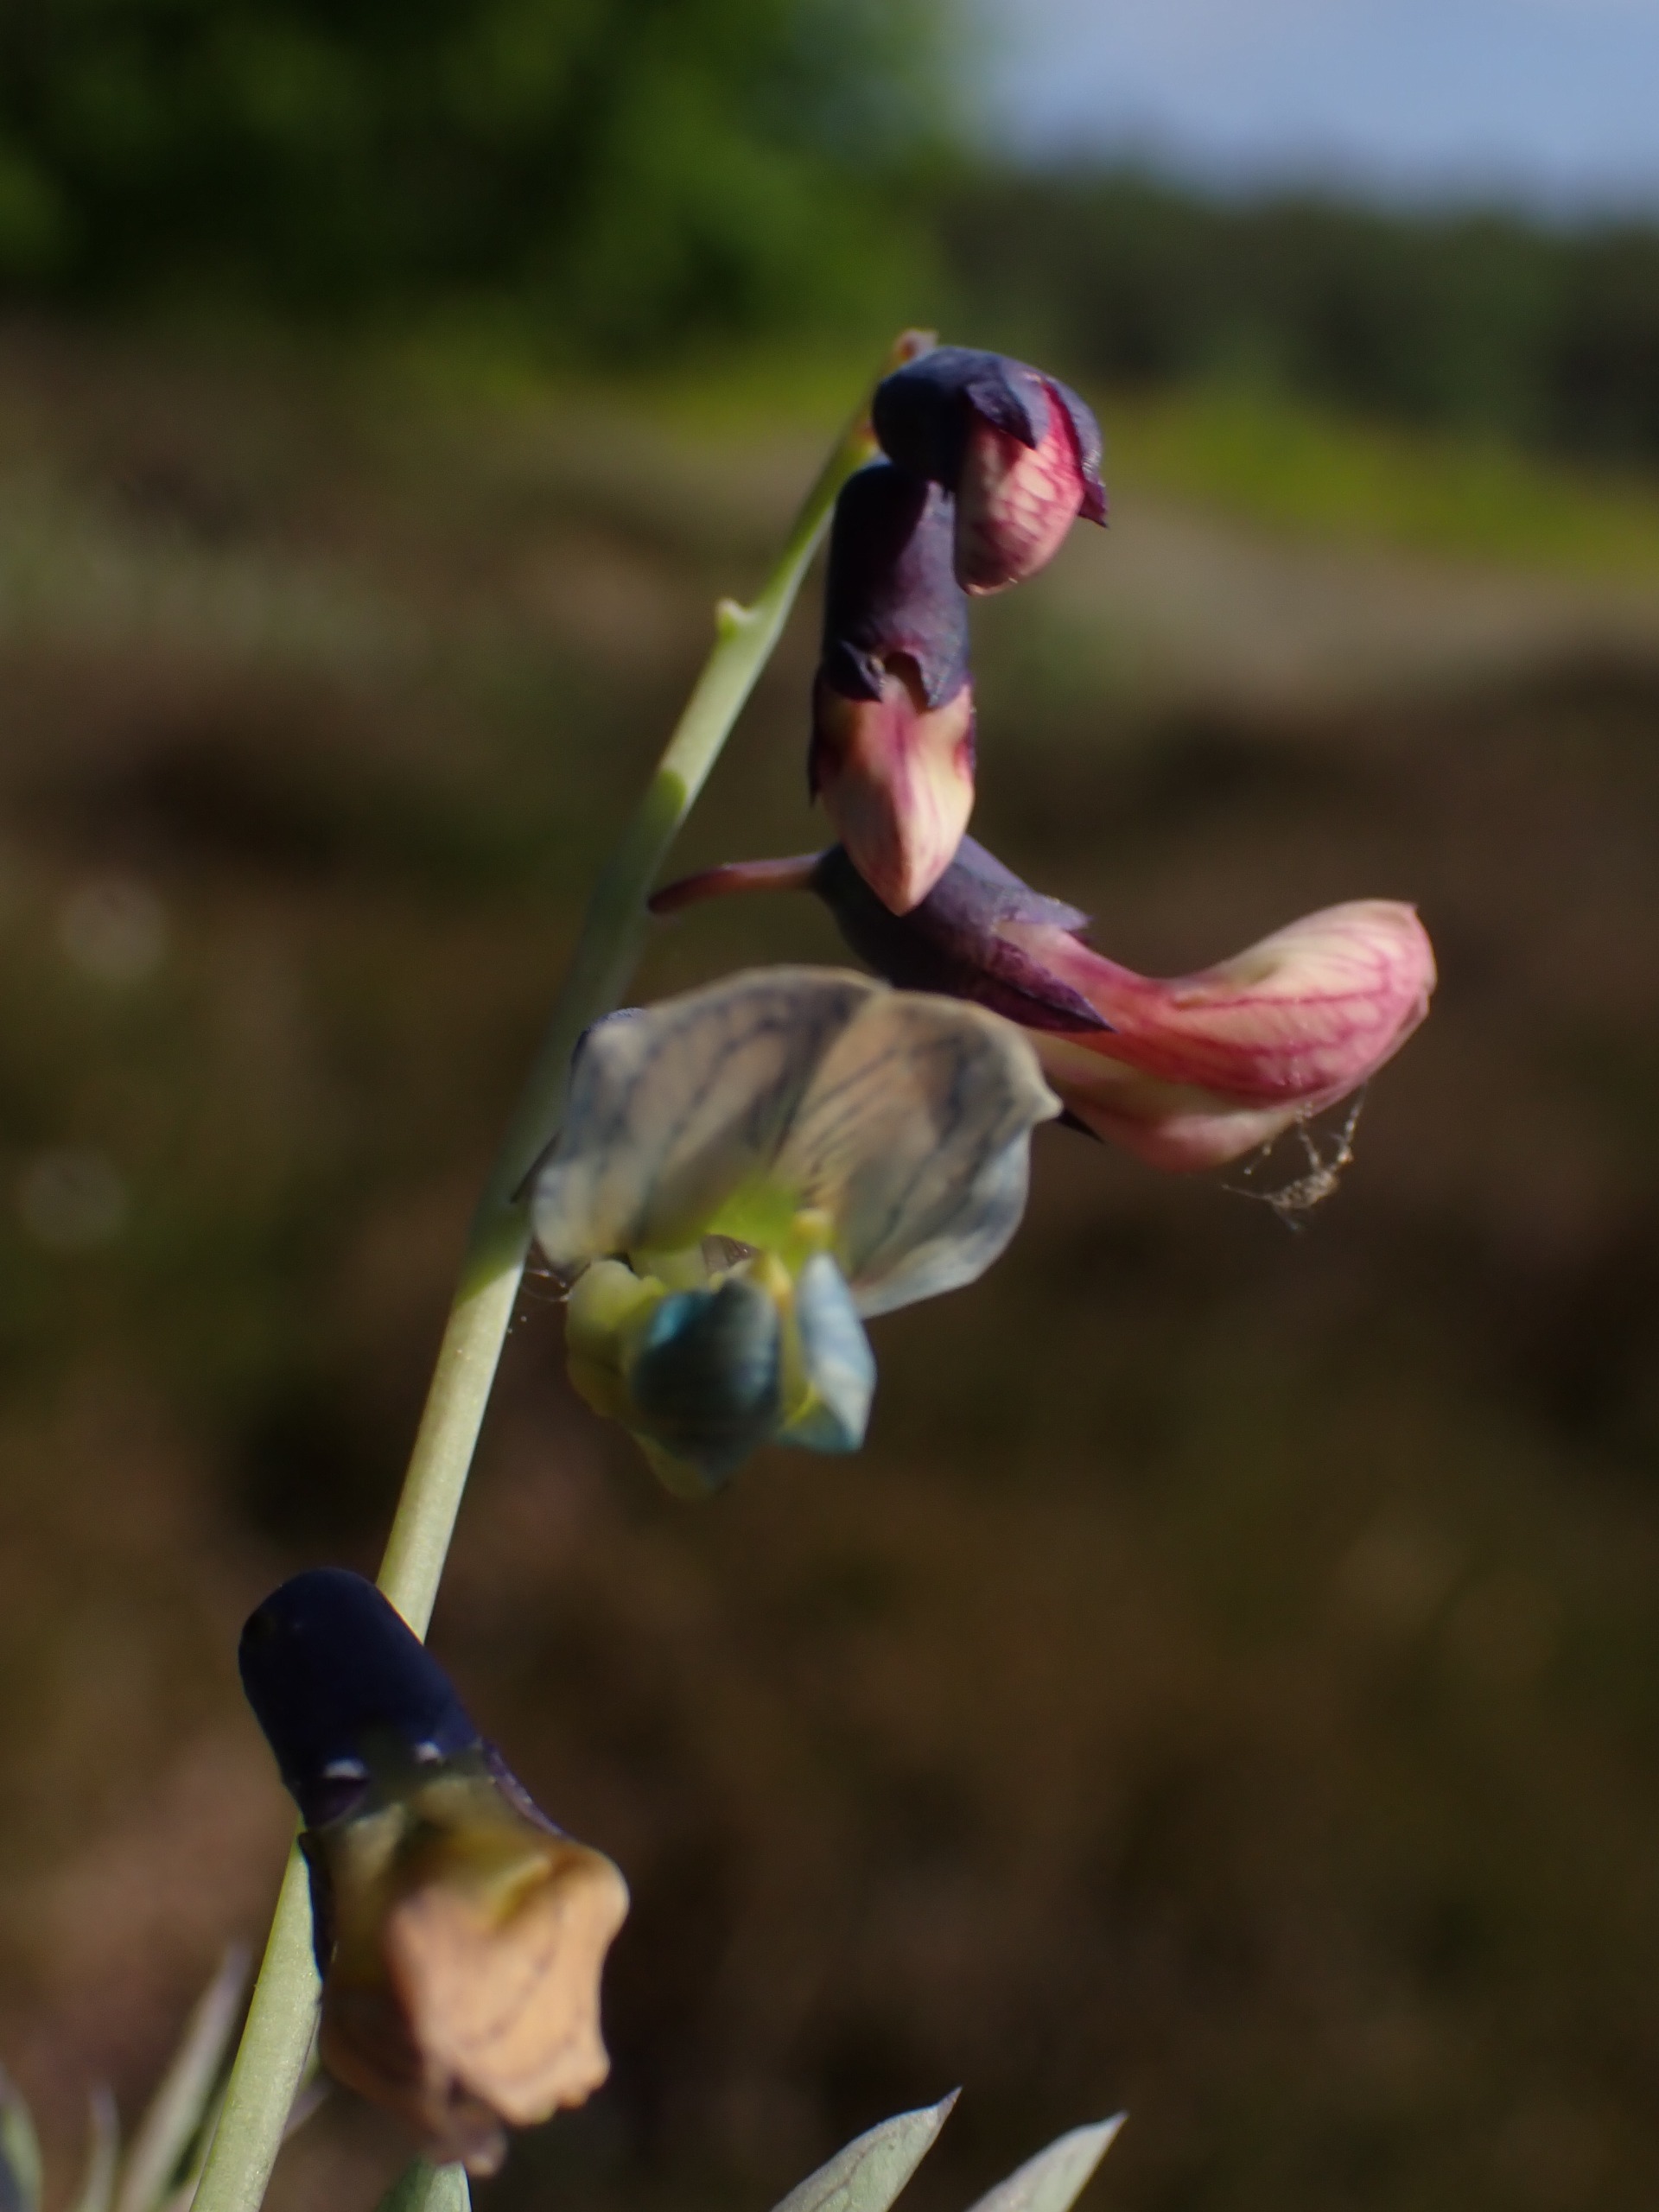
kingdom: Plantae
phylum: Tracheophyta
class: Magnoliopsida
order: Fabales
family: Fabaceae
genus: Lathyrus
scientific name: Lathyrus linifolius
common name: Krat-fladbælg
